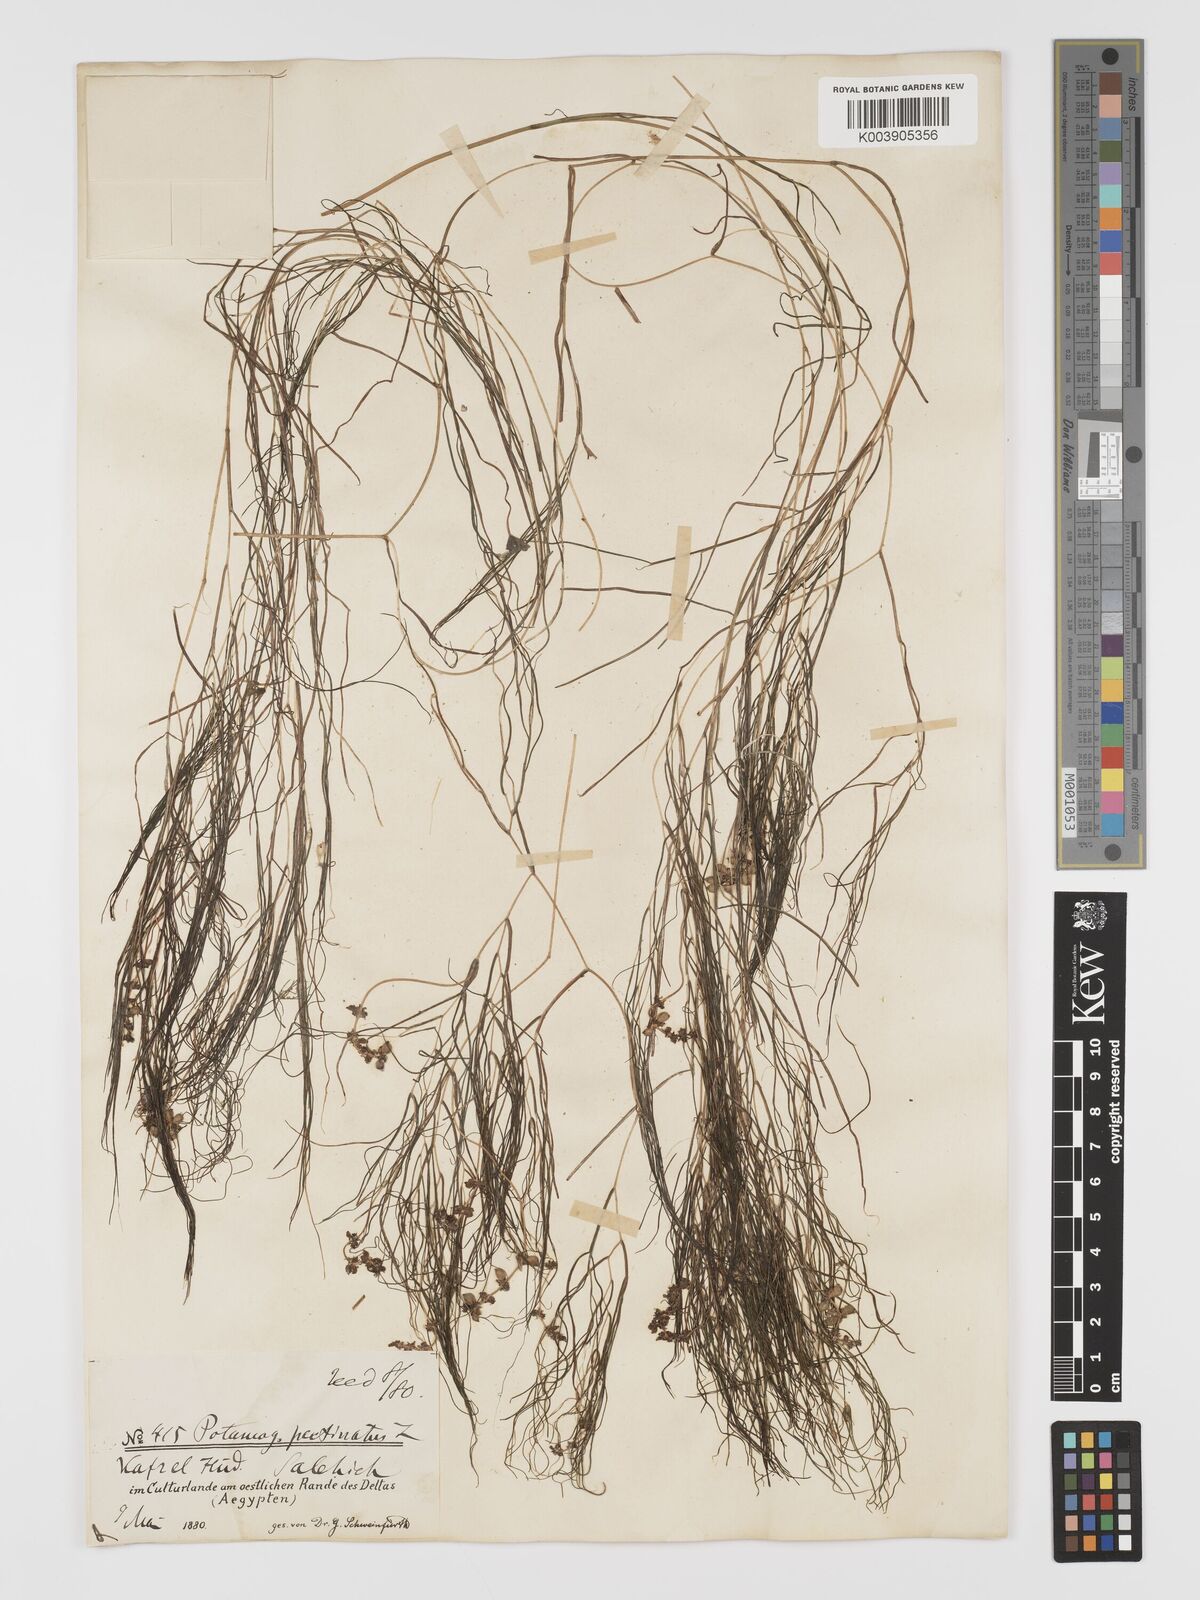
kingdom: Plantae
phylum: Tracheophyta
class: Liliopsida
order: Alismatales
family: Potamogetonaceae
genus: Stuckenia
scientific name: Stuckenia pectinata
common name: Sago pondweed
